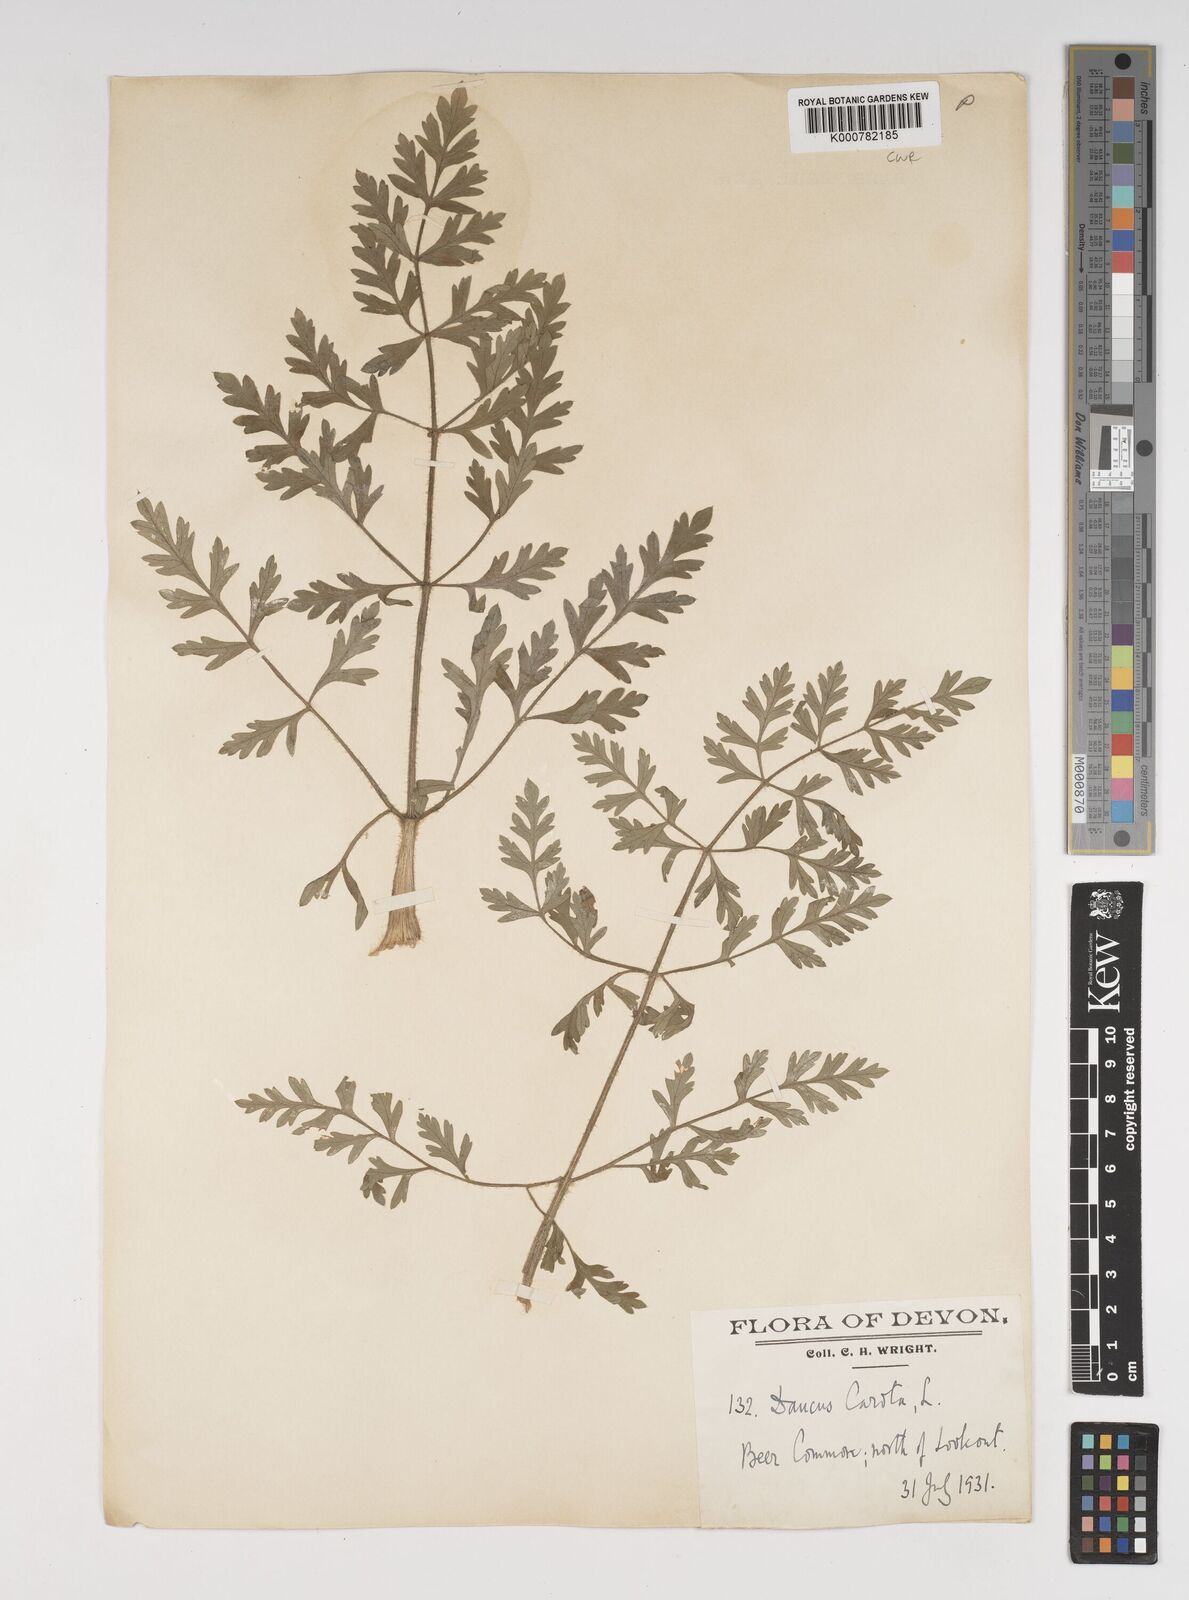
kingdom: Plantae
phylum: Tracheophyta
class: Magnoliopsida
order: Apiales
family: Apiaceae
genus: Daucus
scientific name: Daucus carota
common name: Wild carrot
